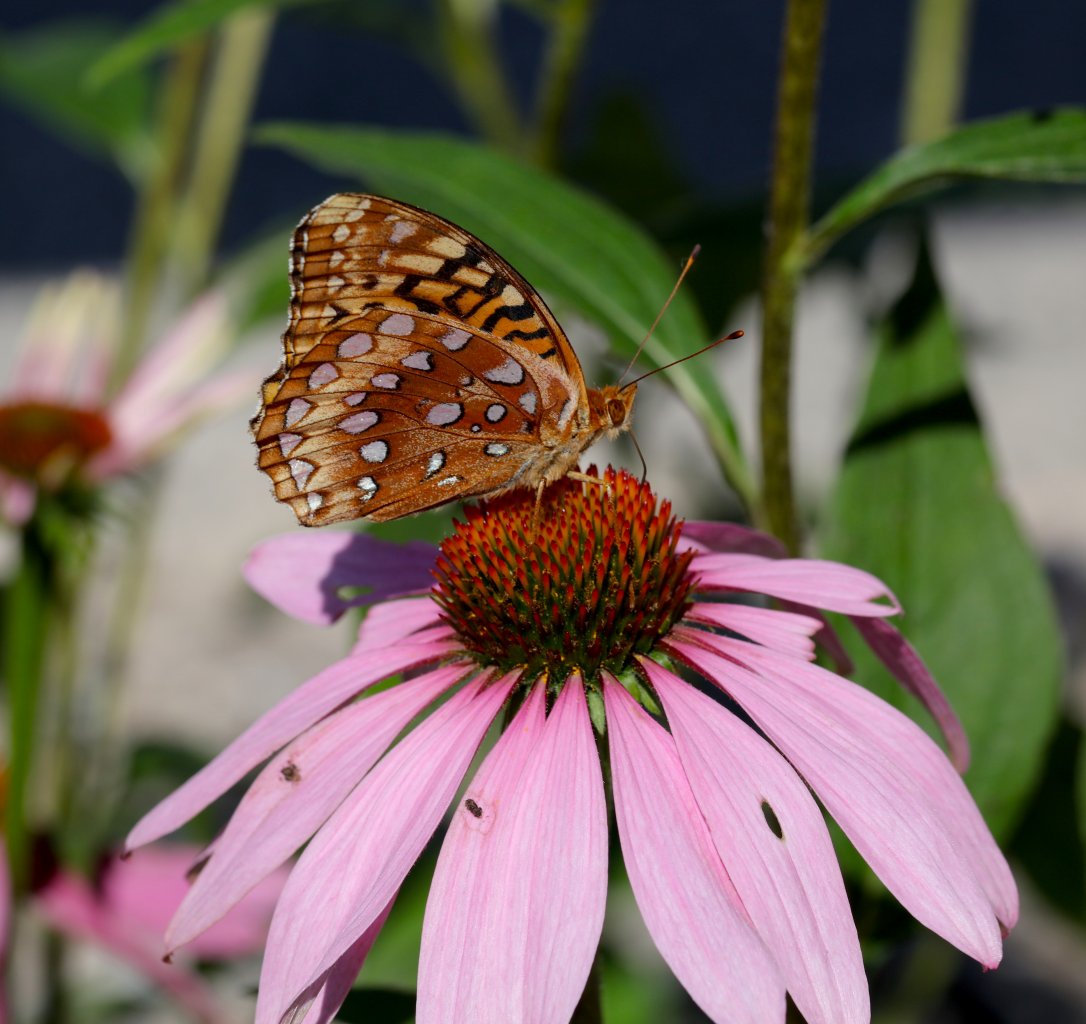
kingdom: Animalia
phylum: Arthropoda
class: Insecta
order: Lepidoptera
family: Nymphalidae
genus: Speyeria
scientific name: Speyeria cybele
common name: Great Spangled Fritillary
